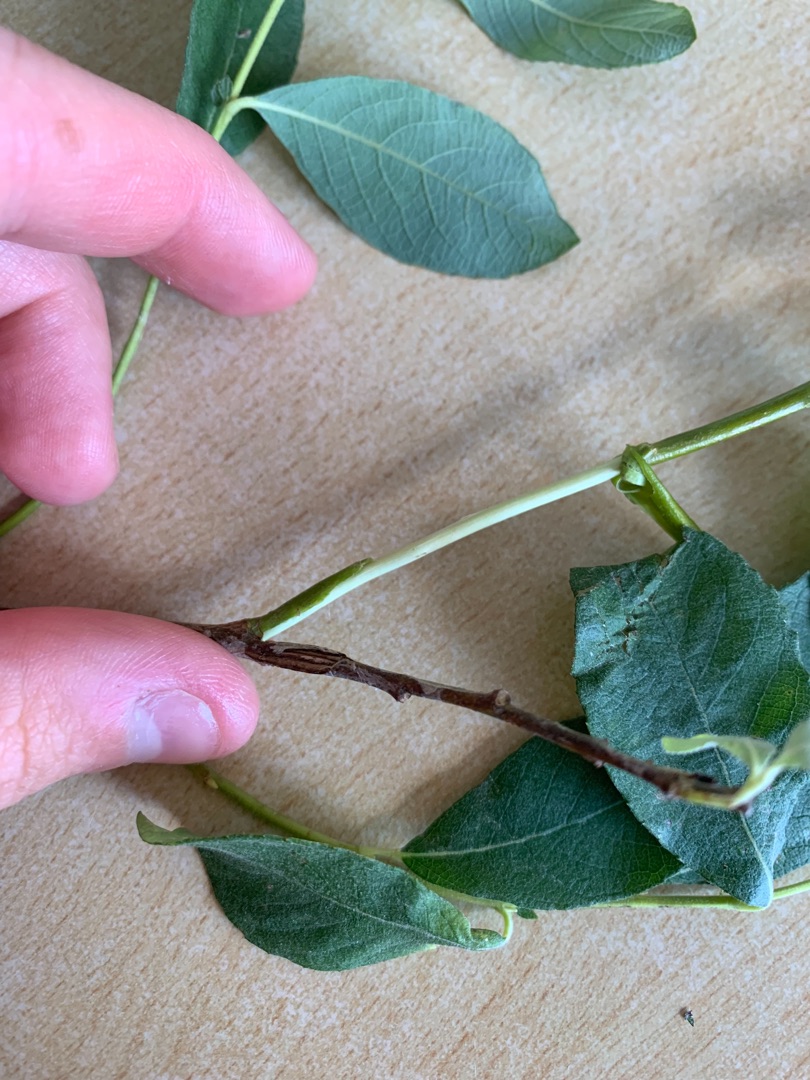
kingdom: Plantae
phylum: Tracheophyta
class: Magnoliopsida
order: Malpighiales
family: Salicaceae
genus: Salix
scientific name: Salix cinerea
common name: Grå-pil
